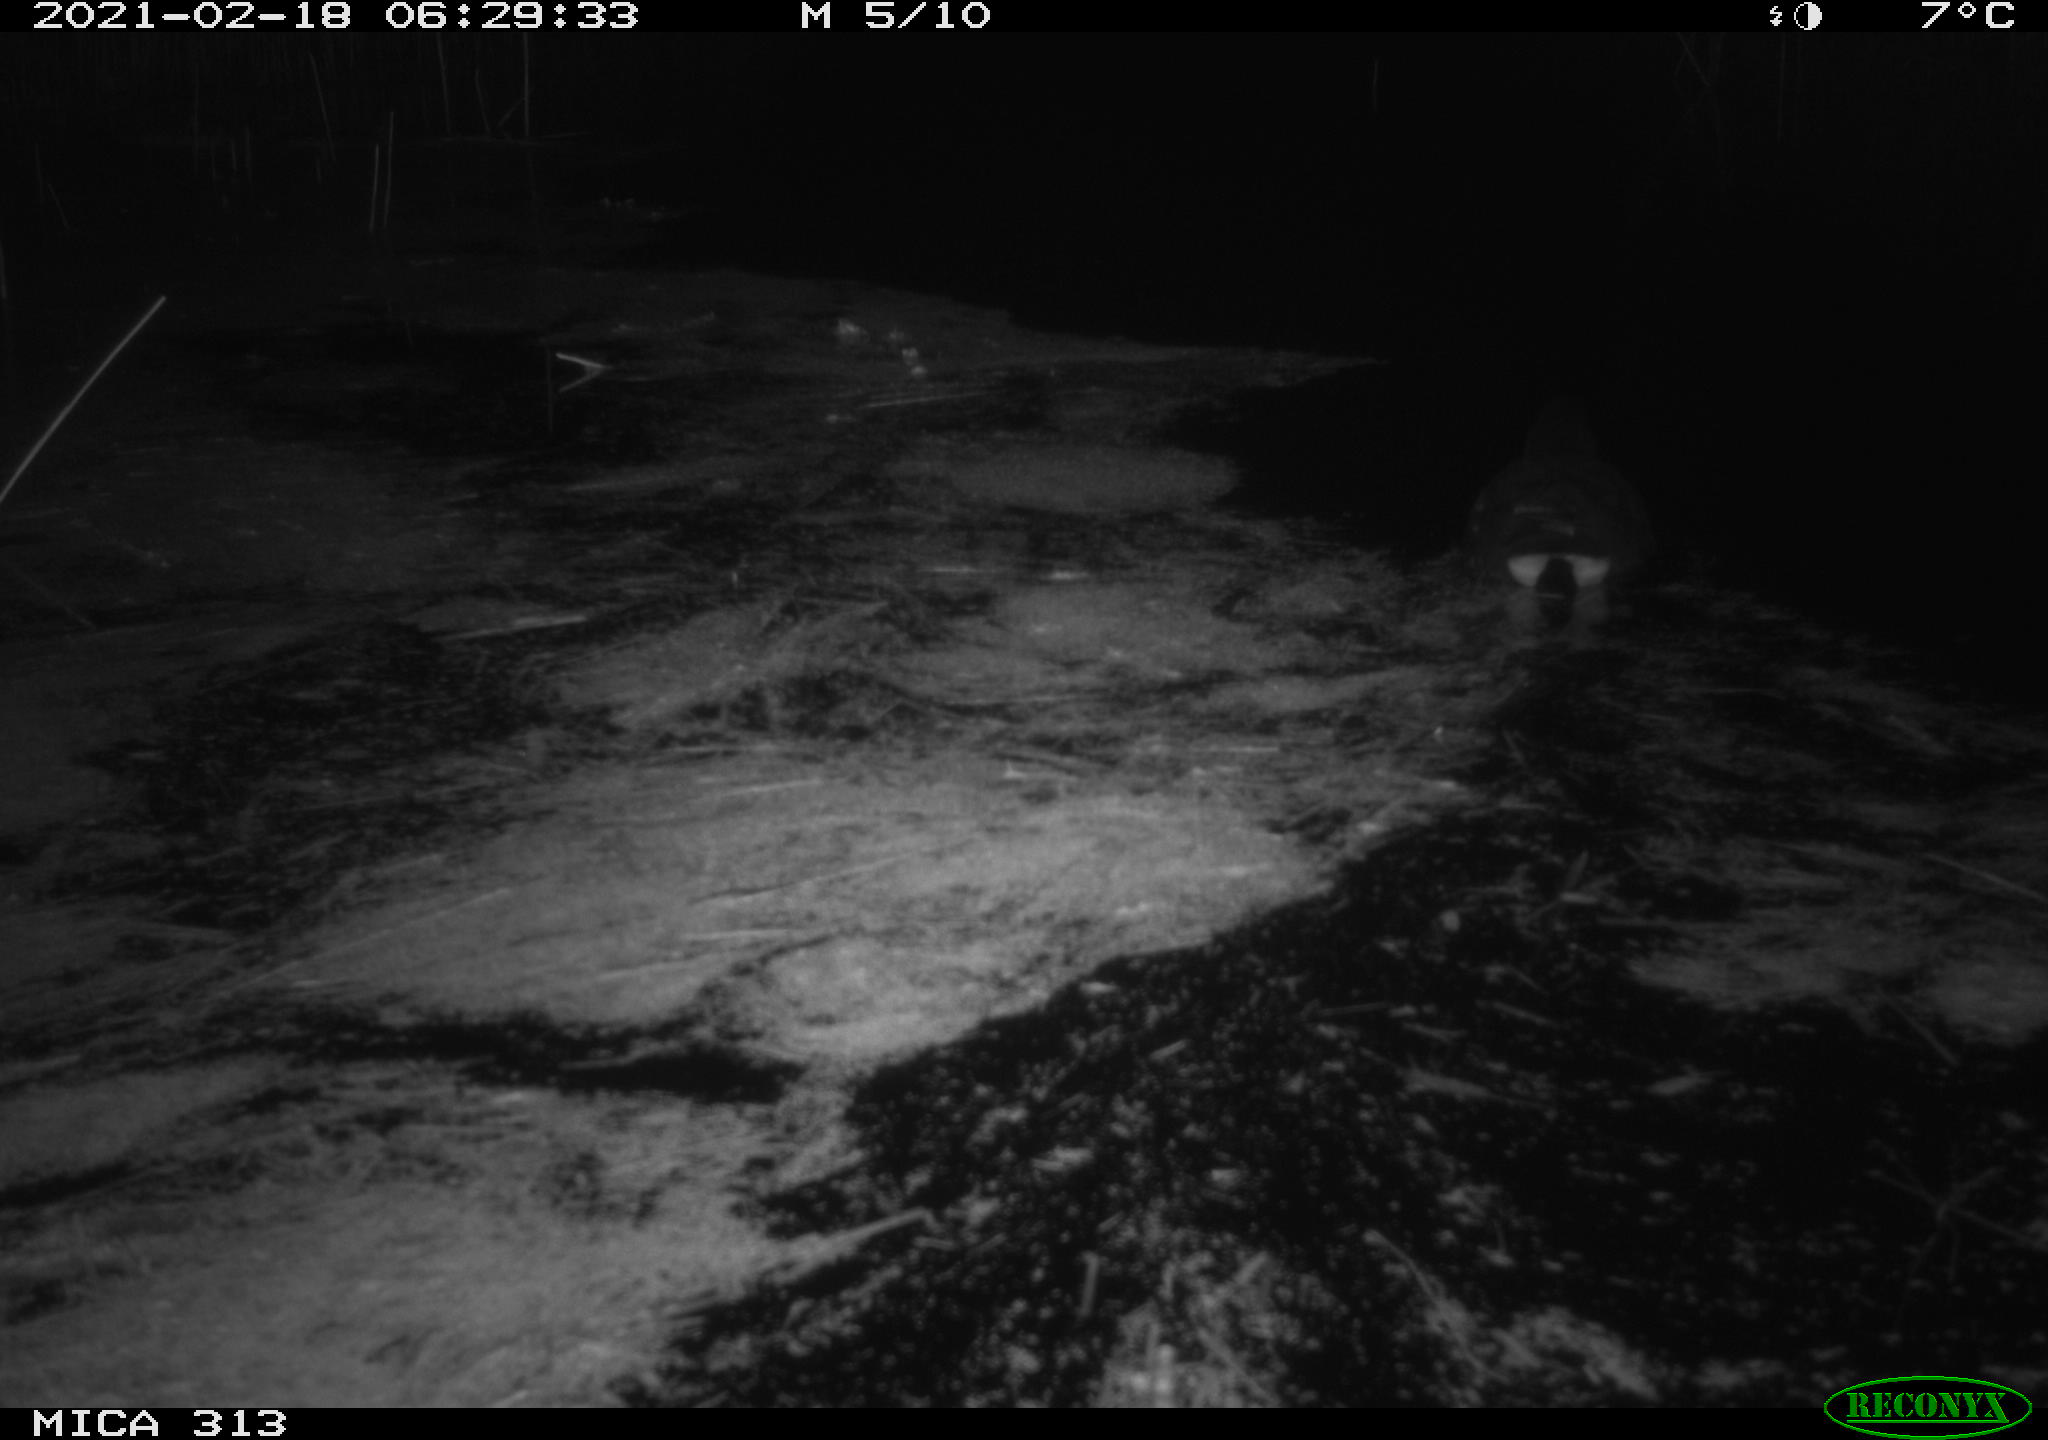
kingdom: Animalia
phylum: Chordata
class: Aves
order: Gruiformes
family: Rallidae
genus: Gallinula
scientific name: Gallinula chloropus
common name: Common moorhen
